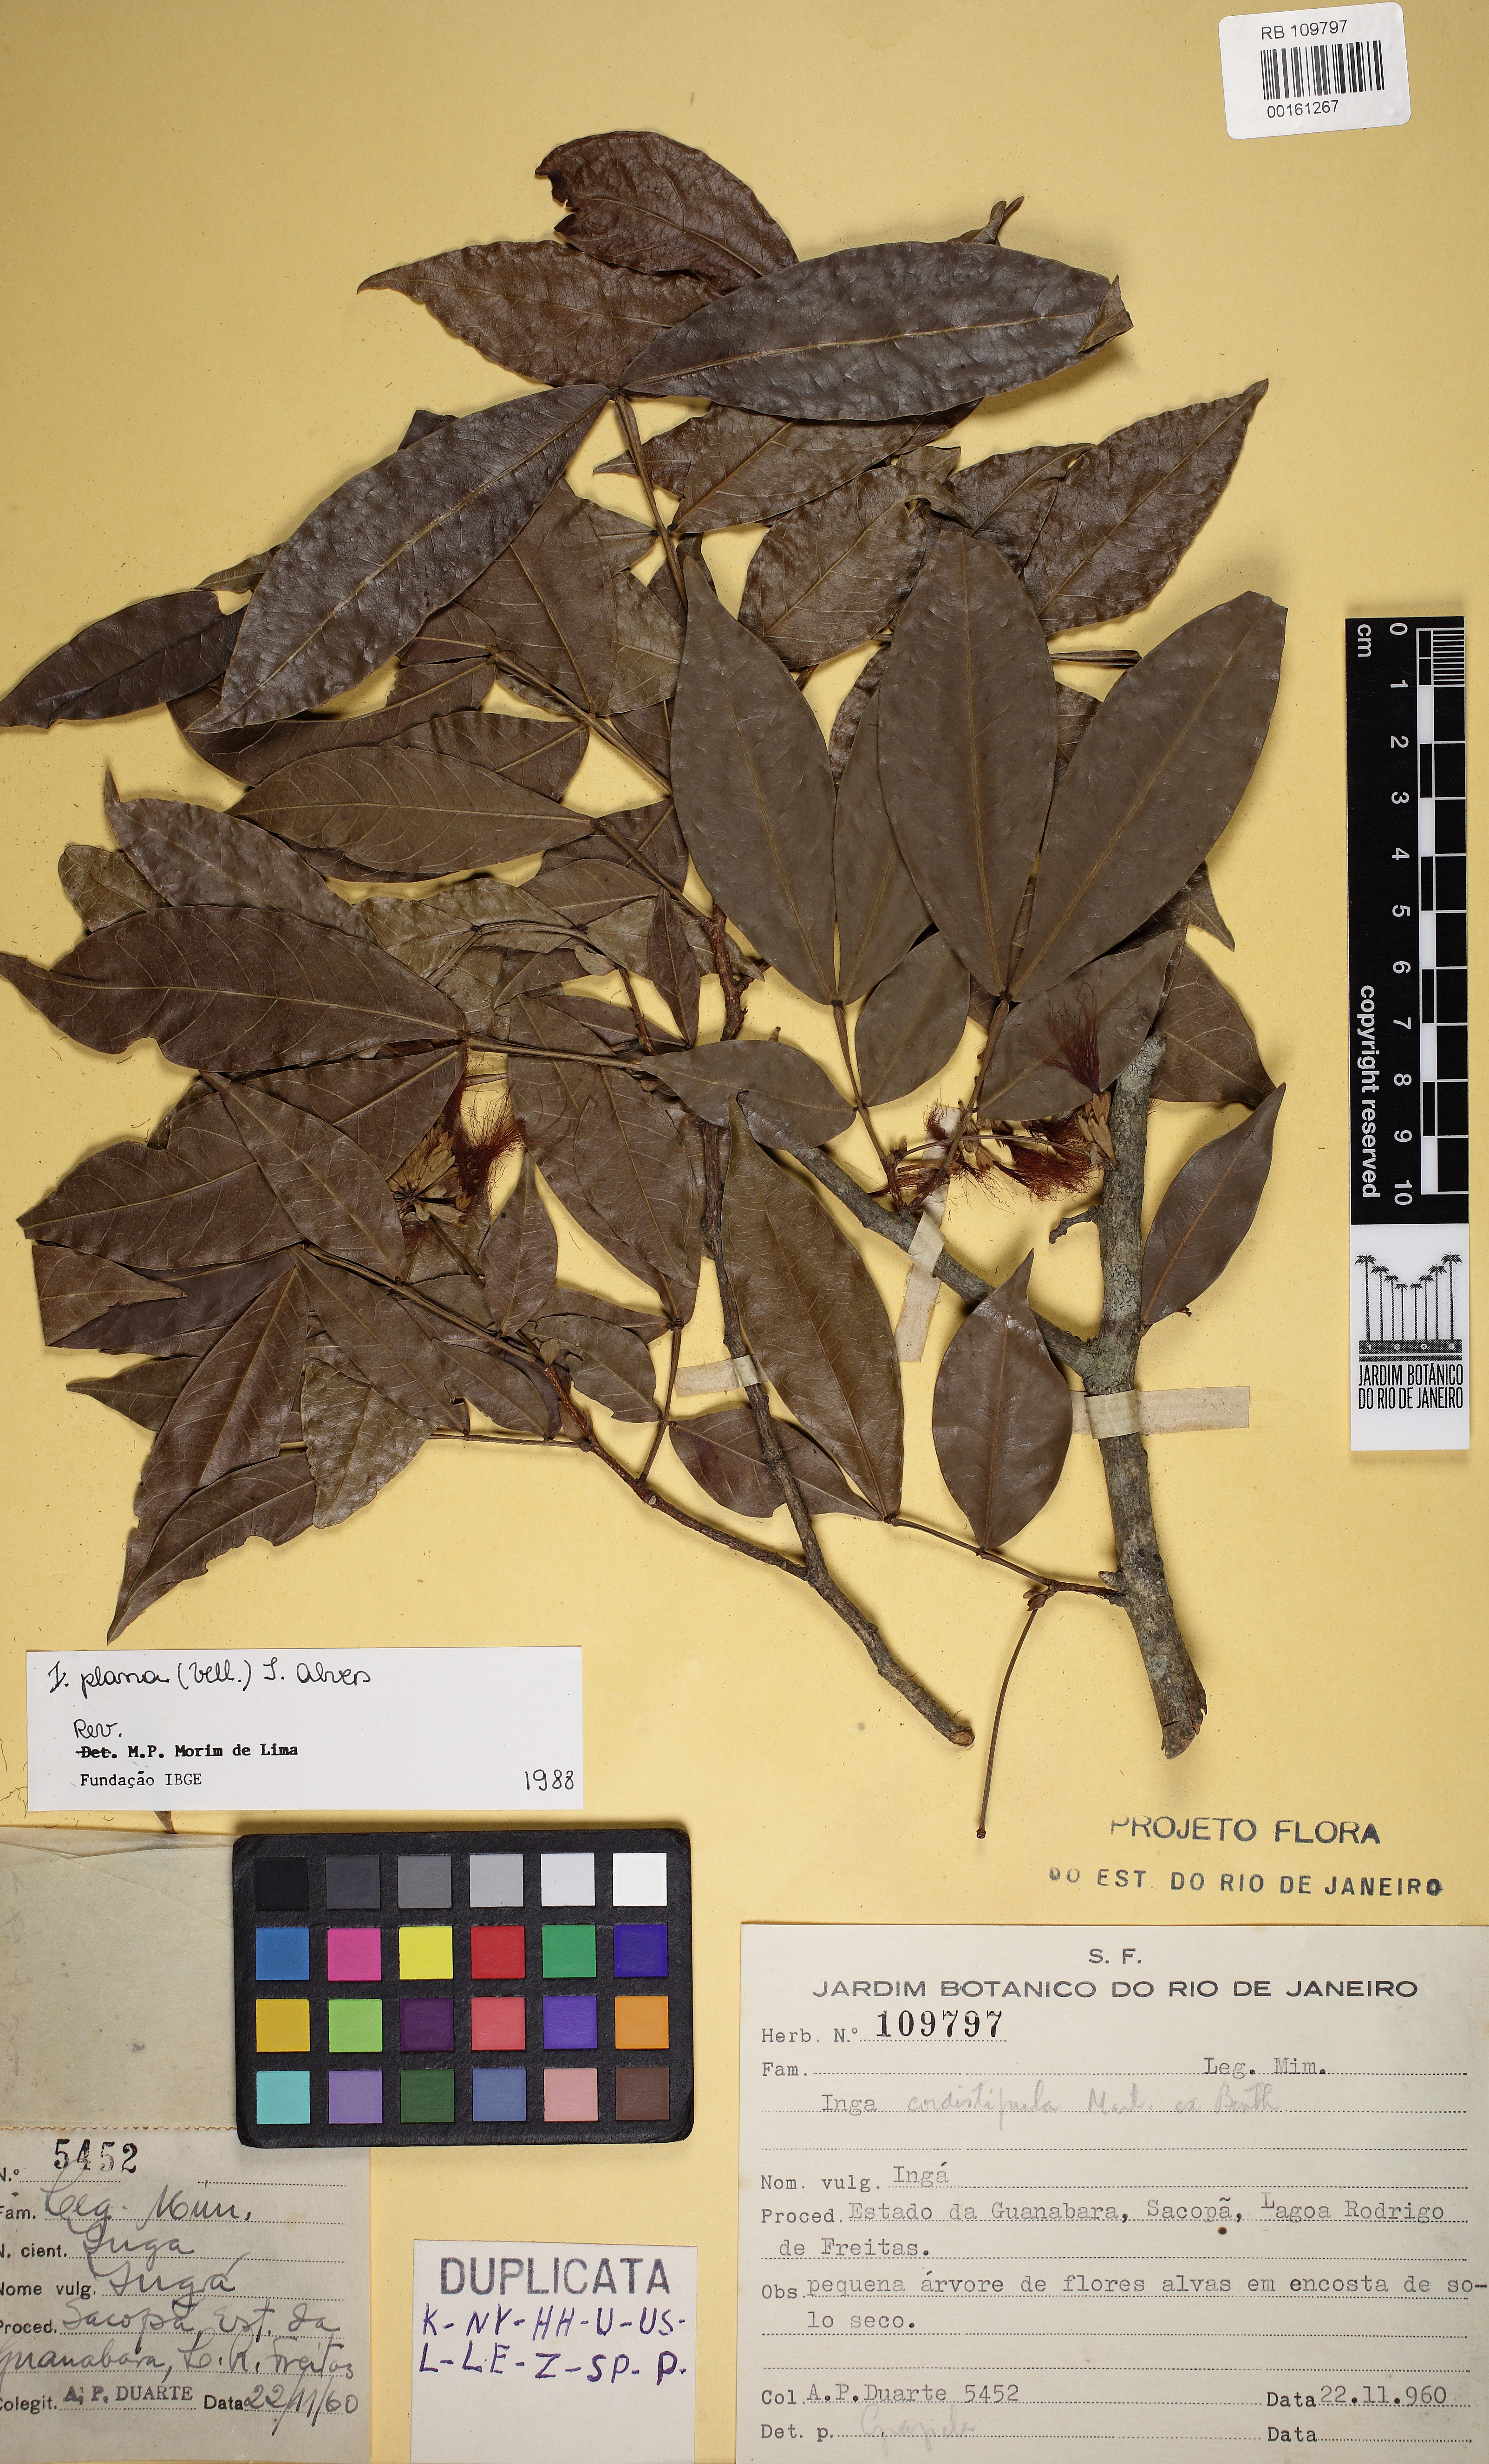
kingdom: Plantae
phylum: Tracheophyta
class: Magnoliopsida
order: Fabales
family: Fabaceae
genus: Inga
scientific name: Inga
